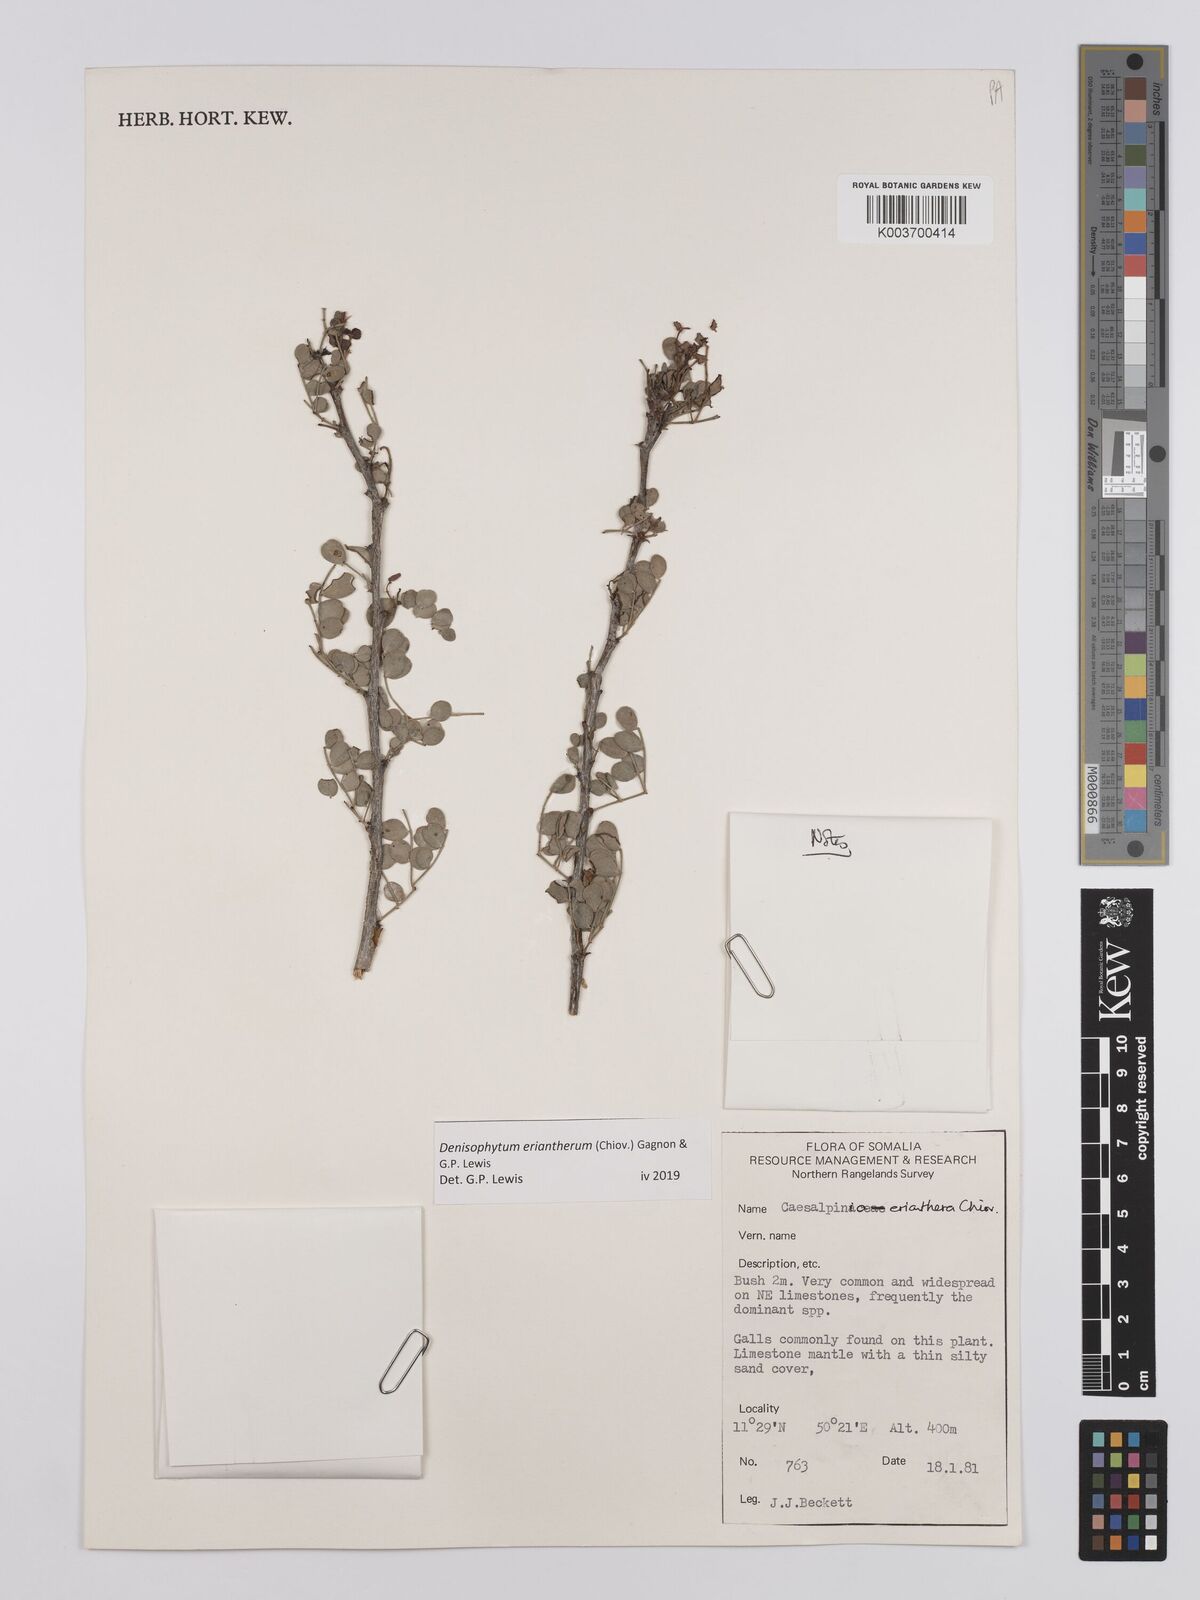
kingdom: Plantae
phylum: Tracheophyta
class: Magnoliopsida
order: Fabales
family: Fabaceae
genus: Denisophytum
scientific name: Denisophytum eriantherum
